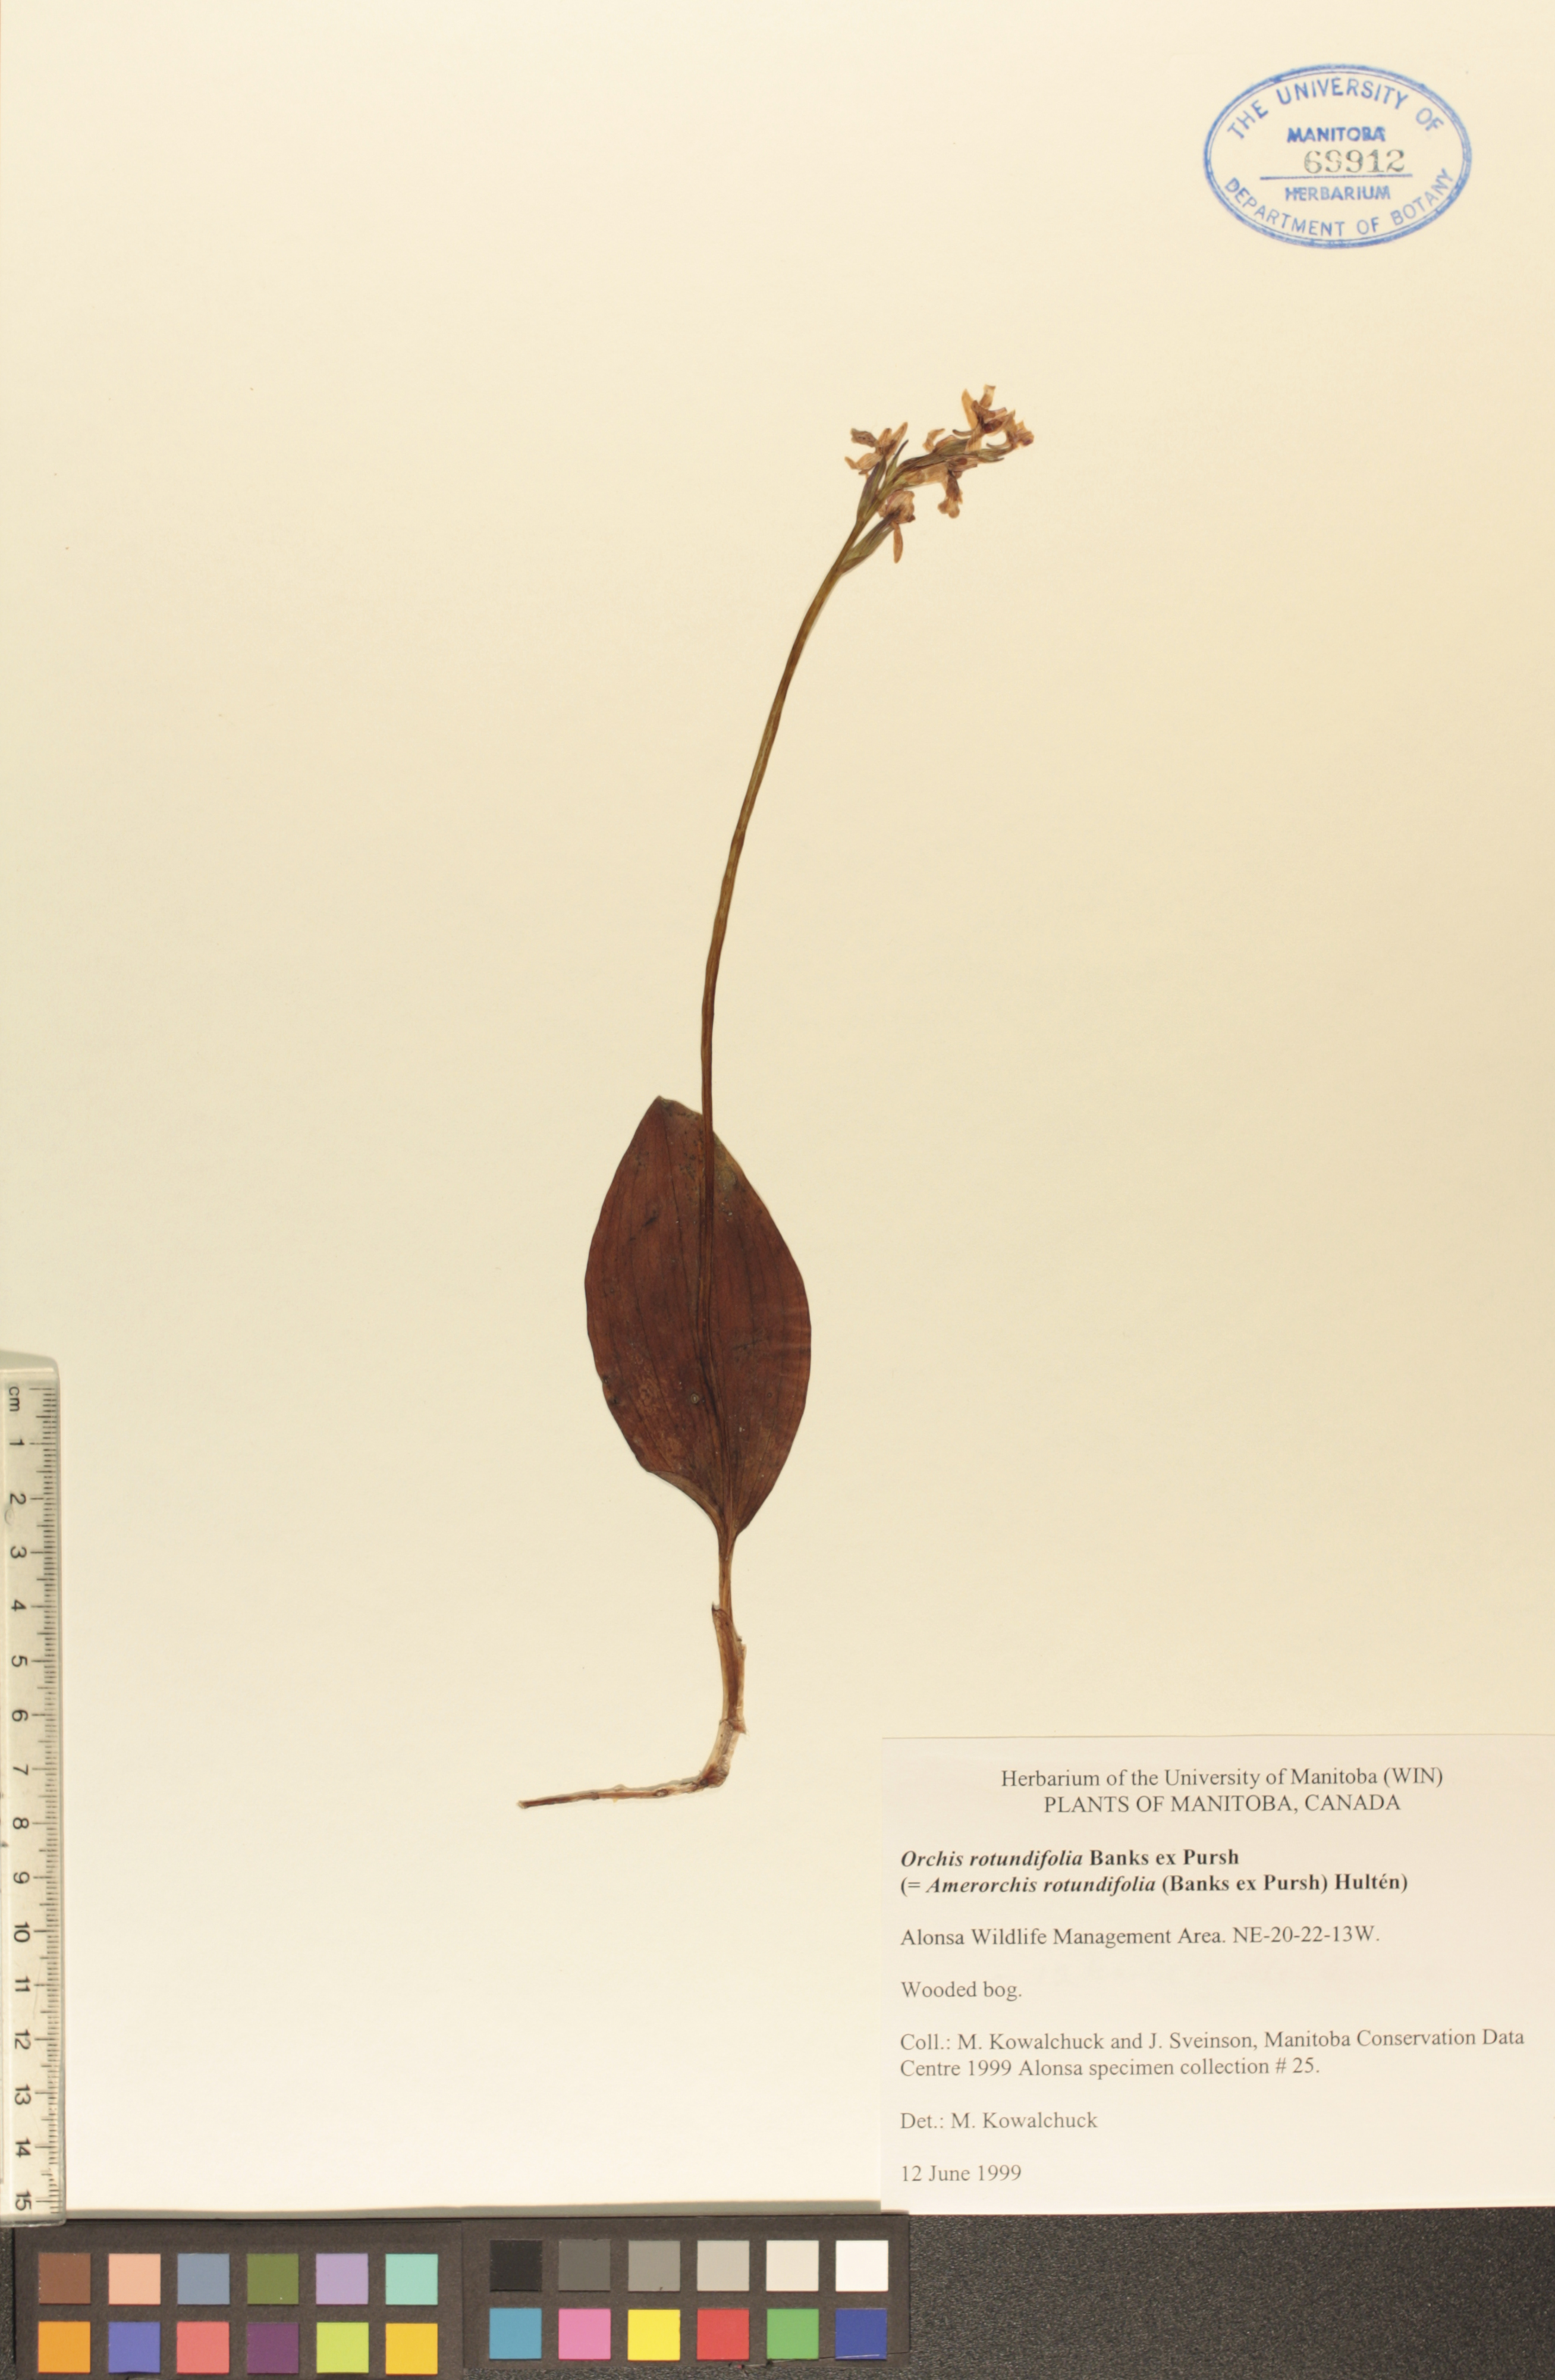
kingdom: Plantae
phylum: Tracheophyta
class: Liliopsida
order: Asparagales
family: Orchidaceae
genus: Galearis
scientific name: Galearis rotundifolia
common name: One-leaved orchis
